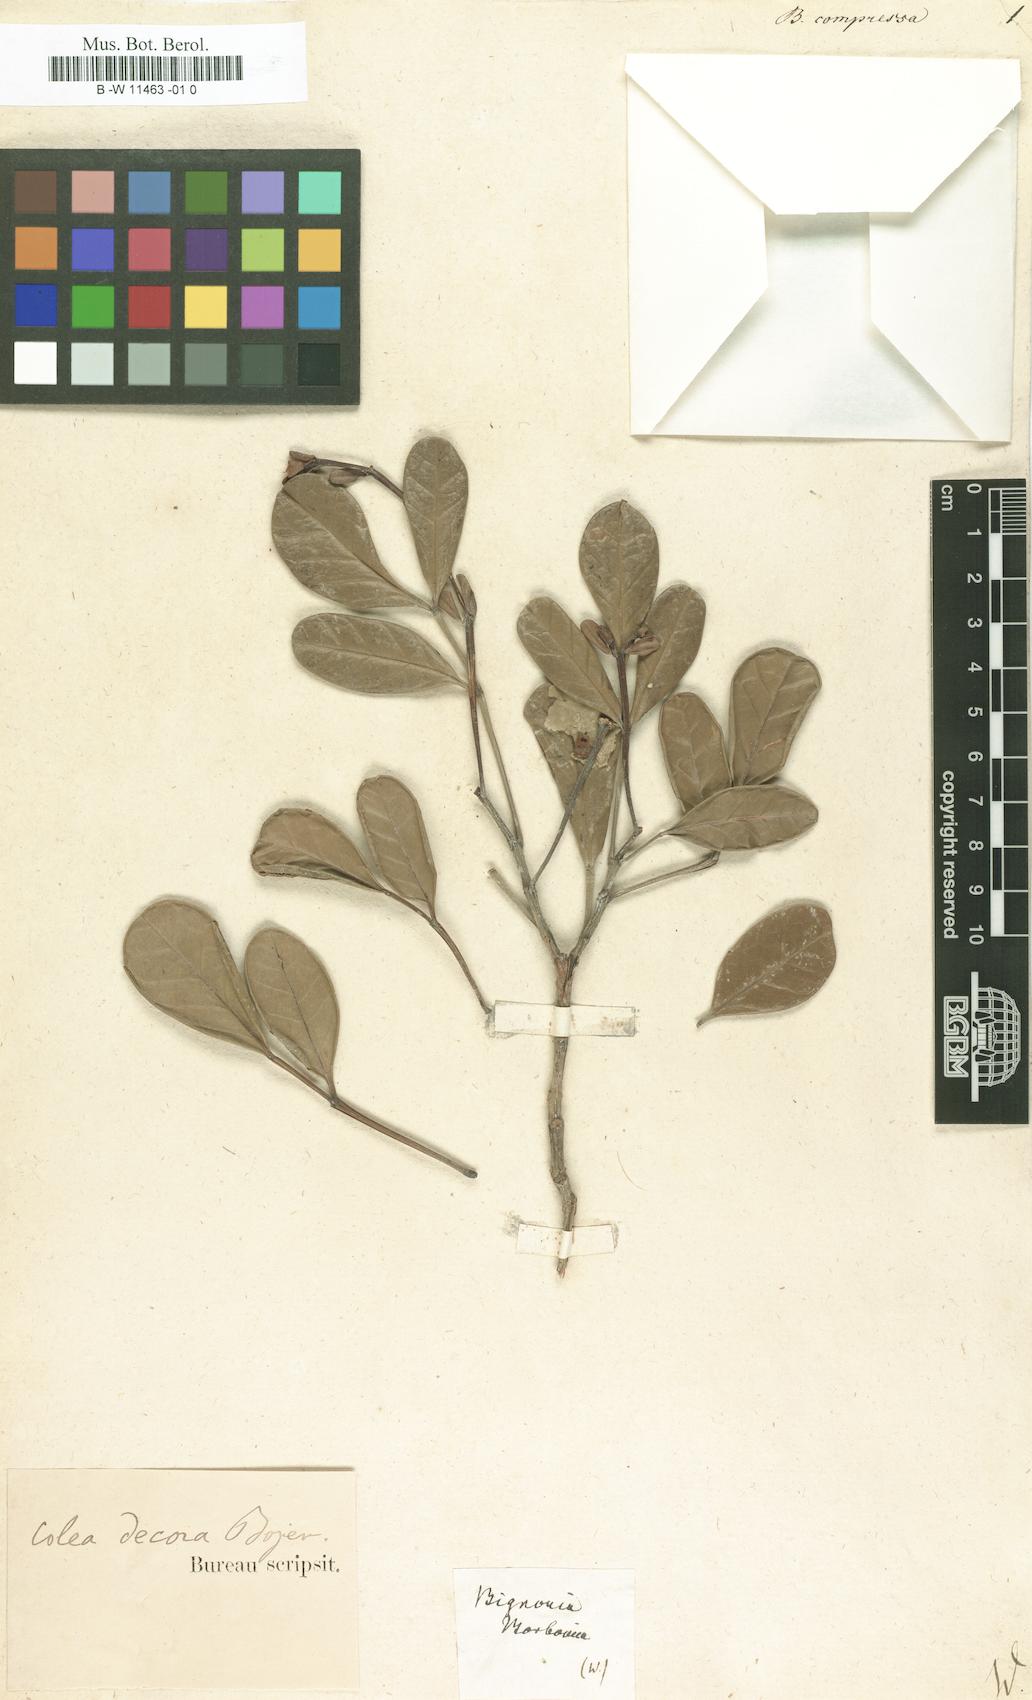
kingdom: Plantae
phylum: Tracheophyta
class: Magnoliopsida
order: Lamiales
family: Bignoniaceae
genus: Rhodocolea
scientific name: Rhodocolea compressa
